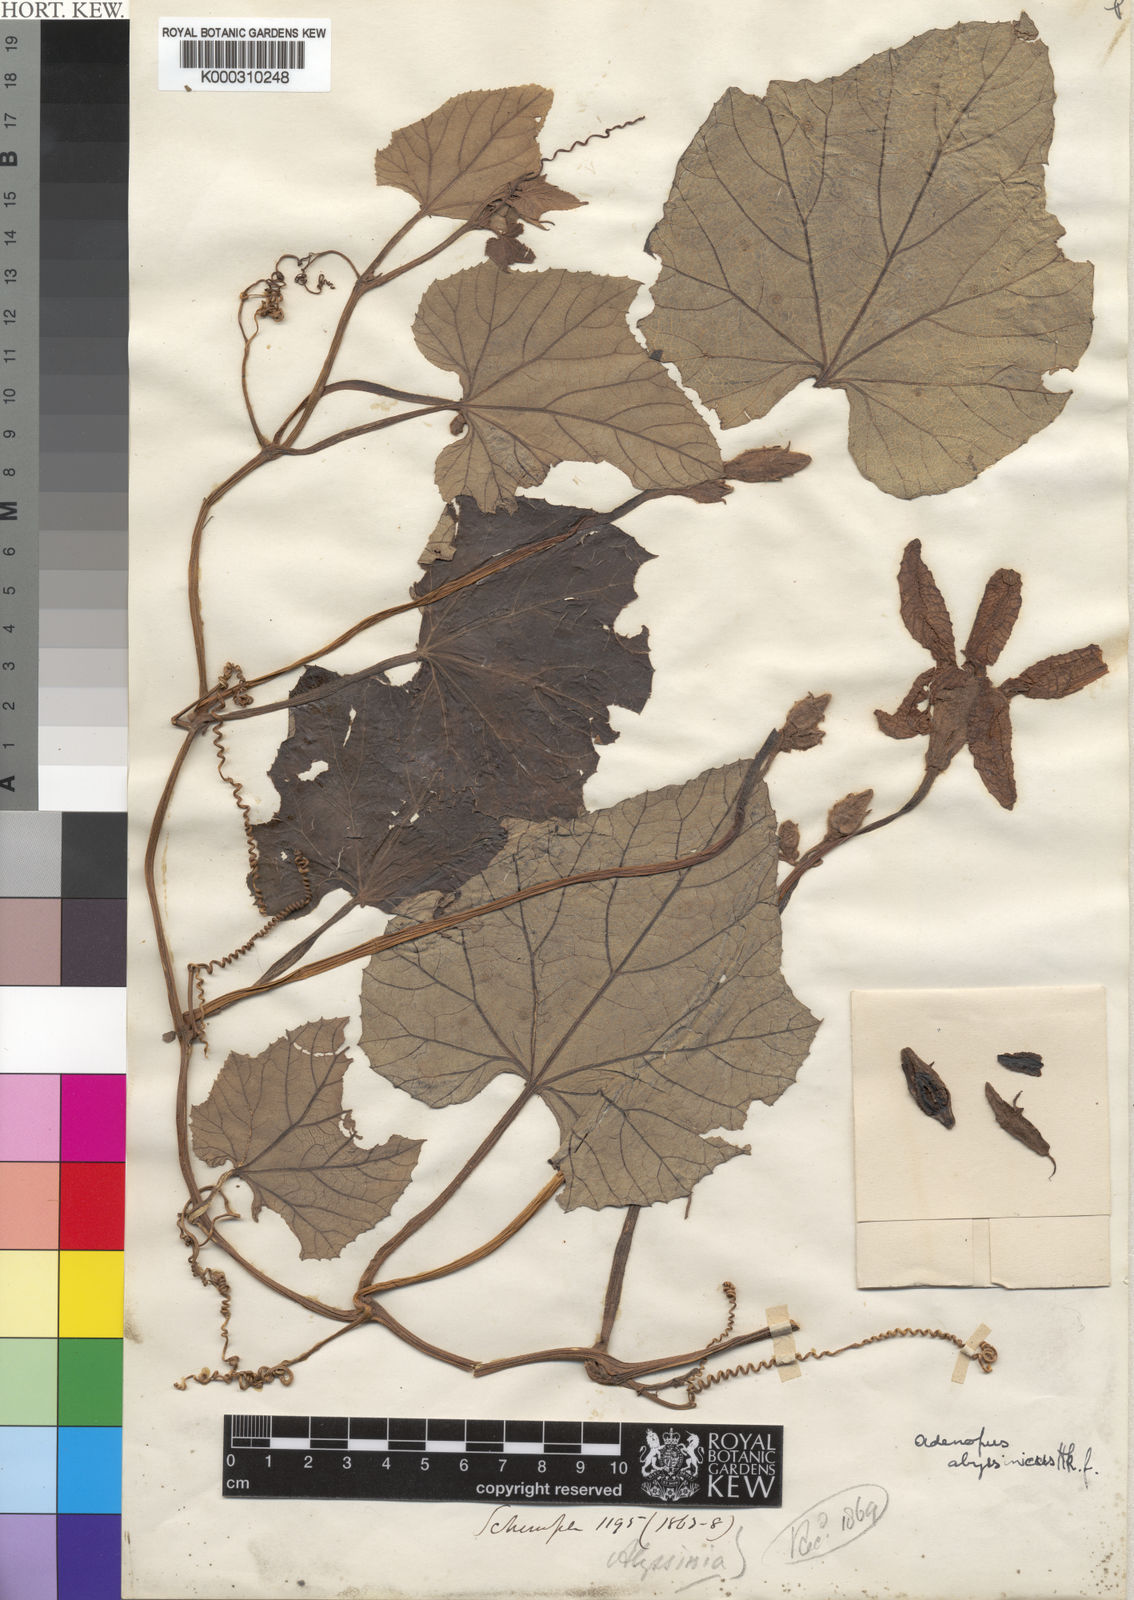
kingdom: Plantae
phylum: Tracheophyta
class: Magnoliopsida
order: Cucurbitales
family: Cucurbitaceae
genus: Lagenaria
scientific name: Lagenaria abyssinica
